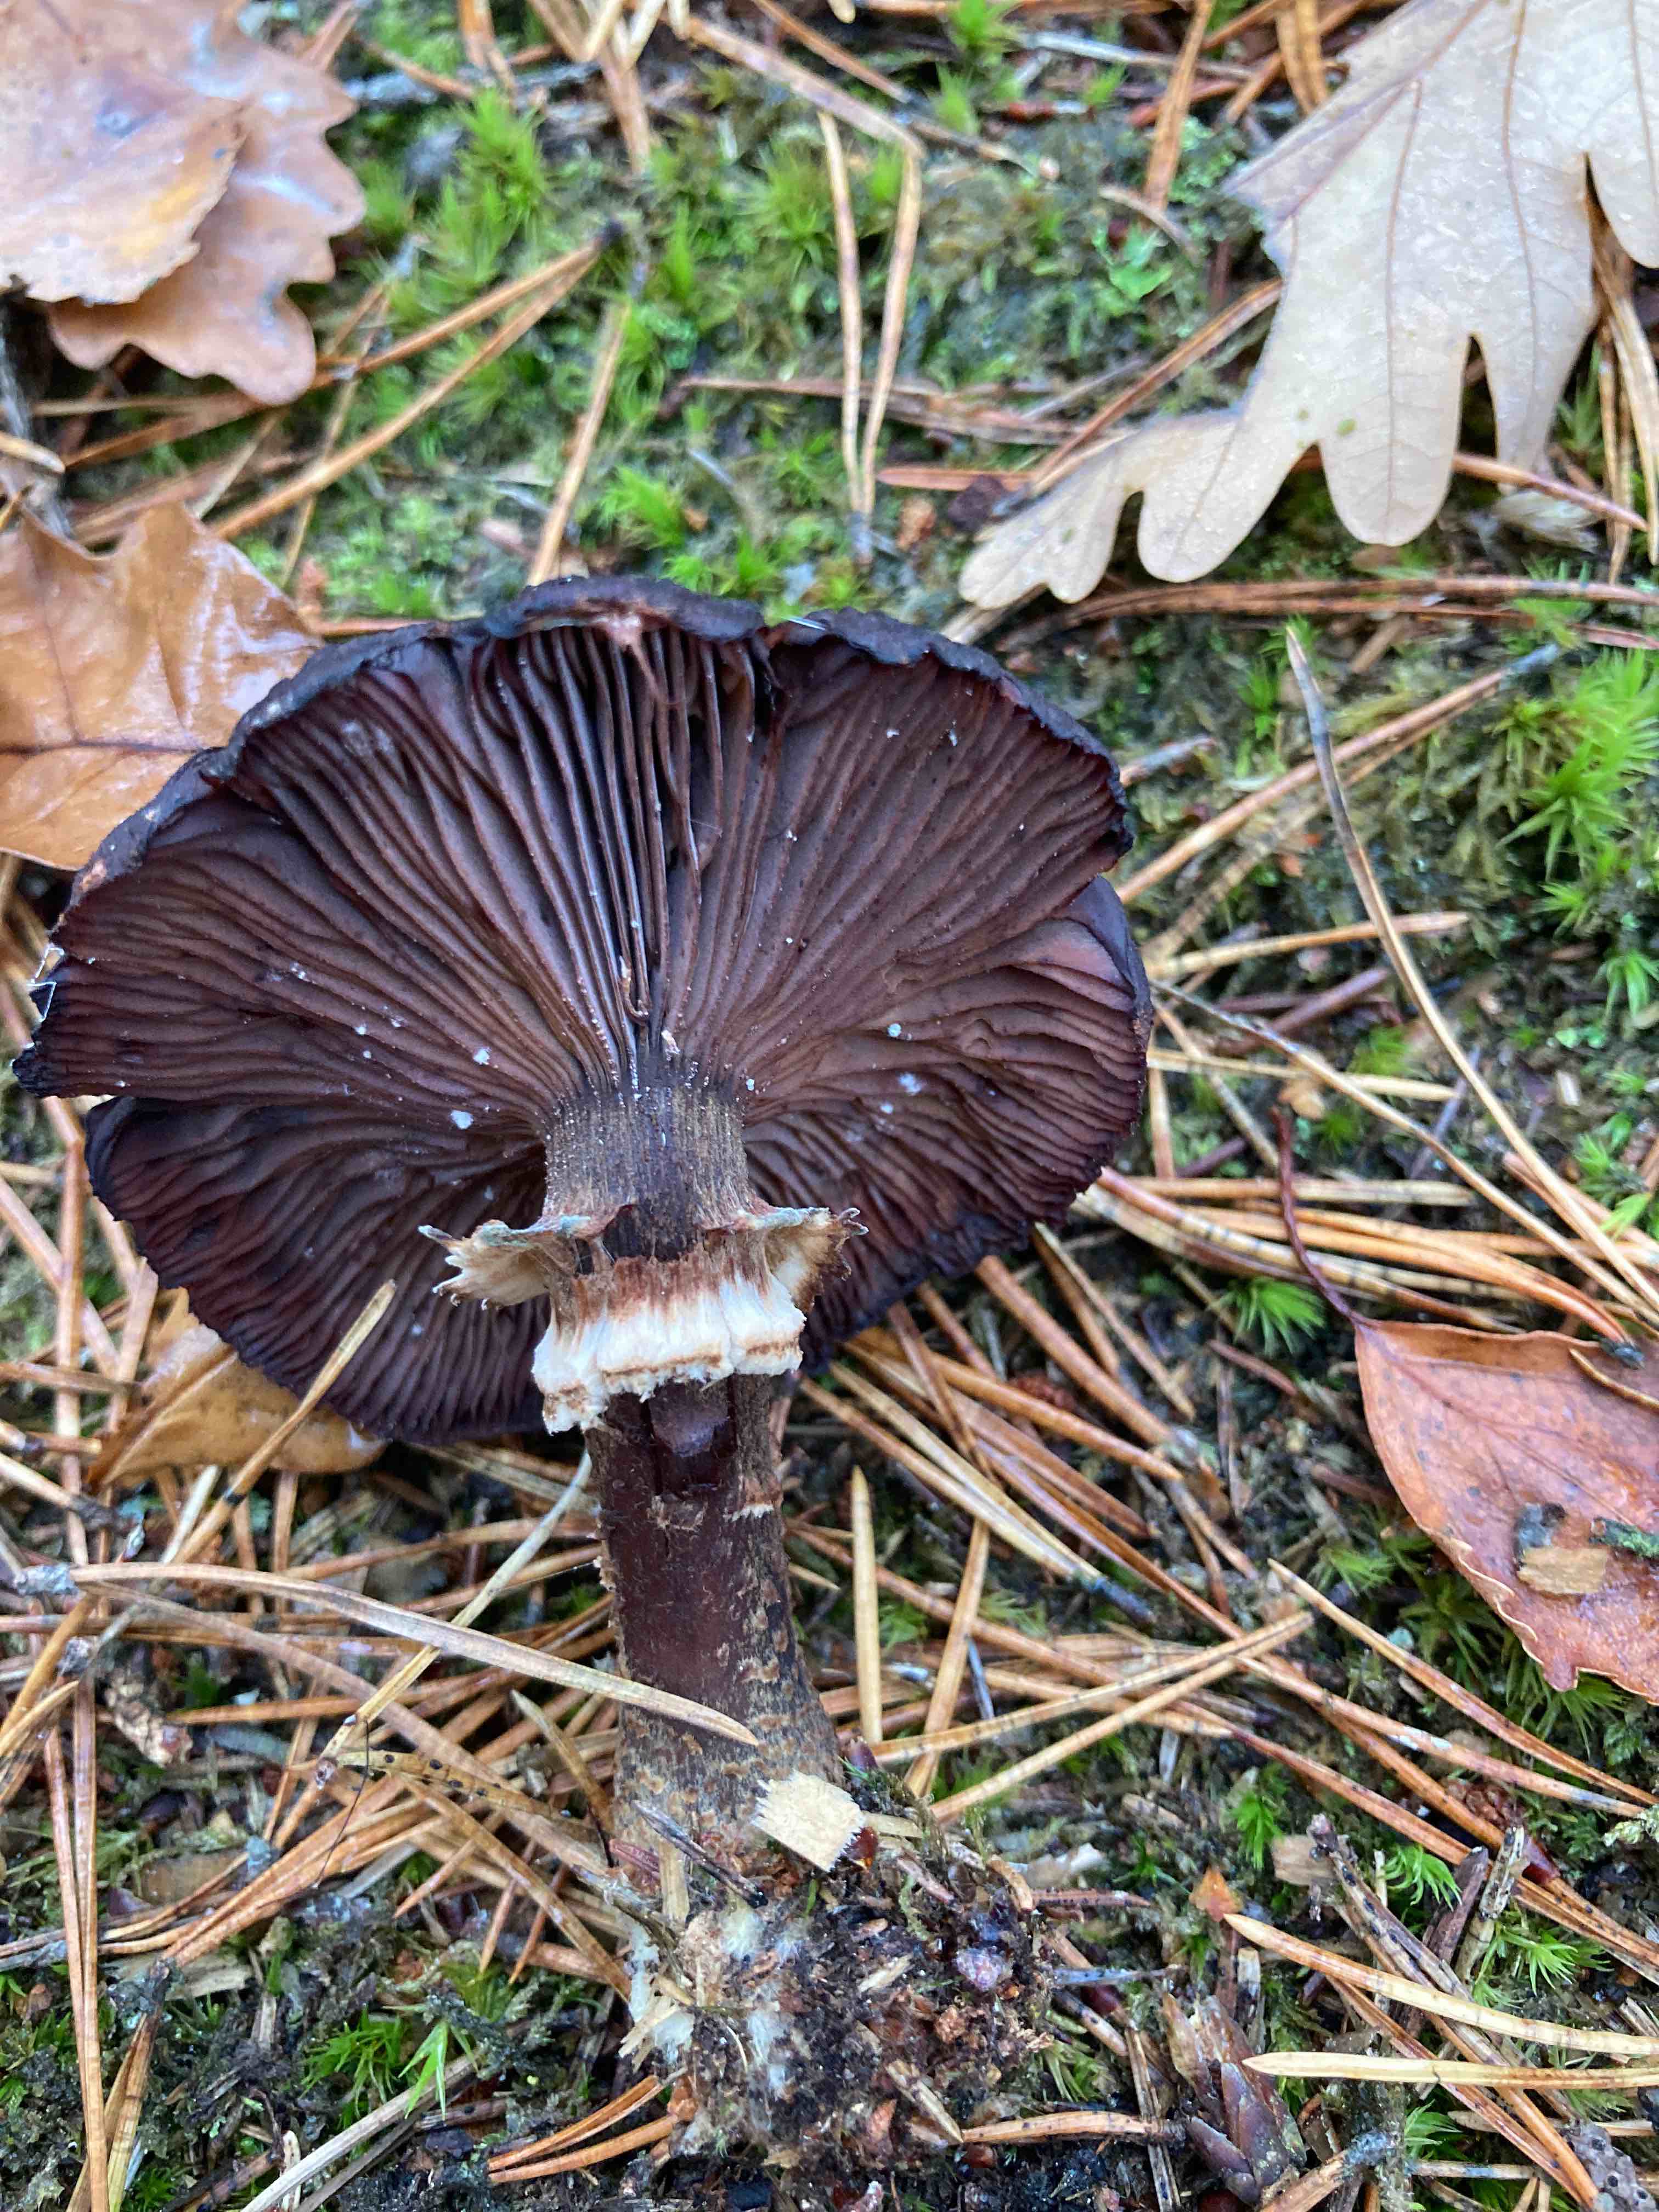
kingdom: Fungi
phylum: Basidiomycota
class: Agaricomycetes
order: Agaricales
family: Physalacriaceae
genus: Armillaria
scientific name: Armillaria
